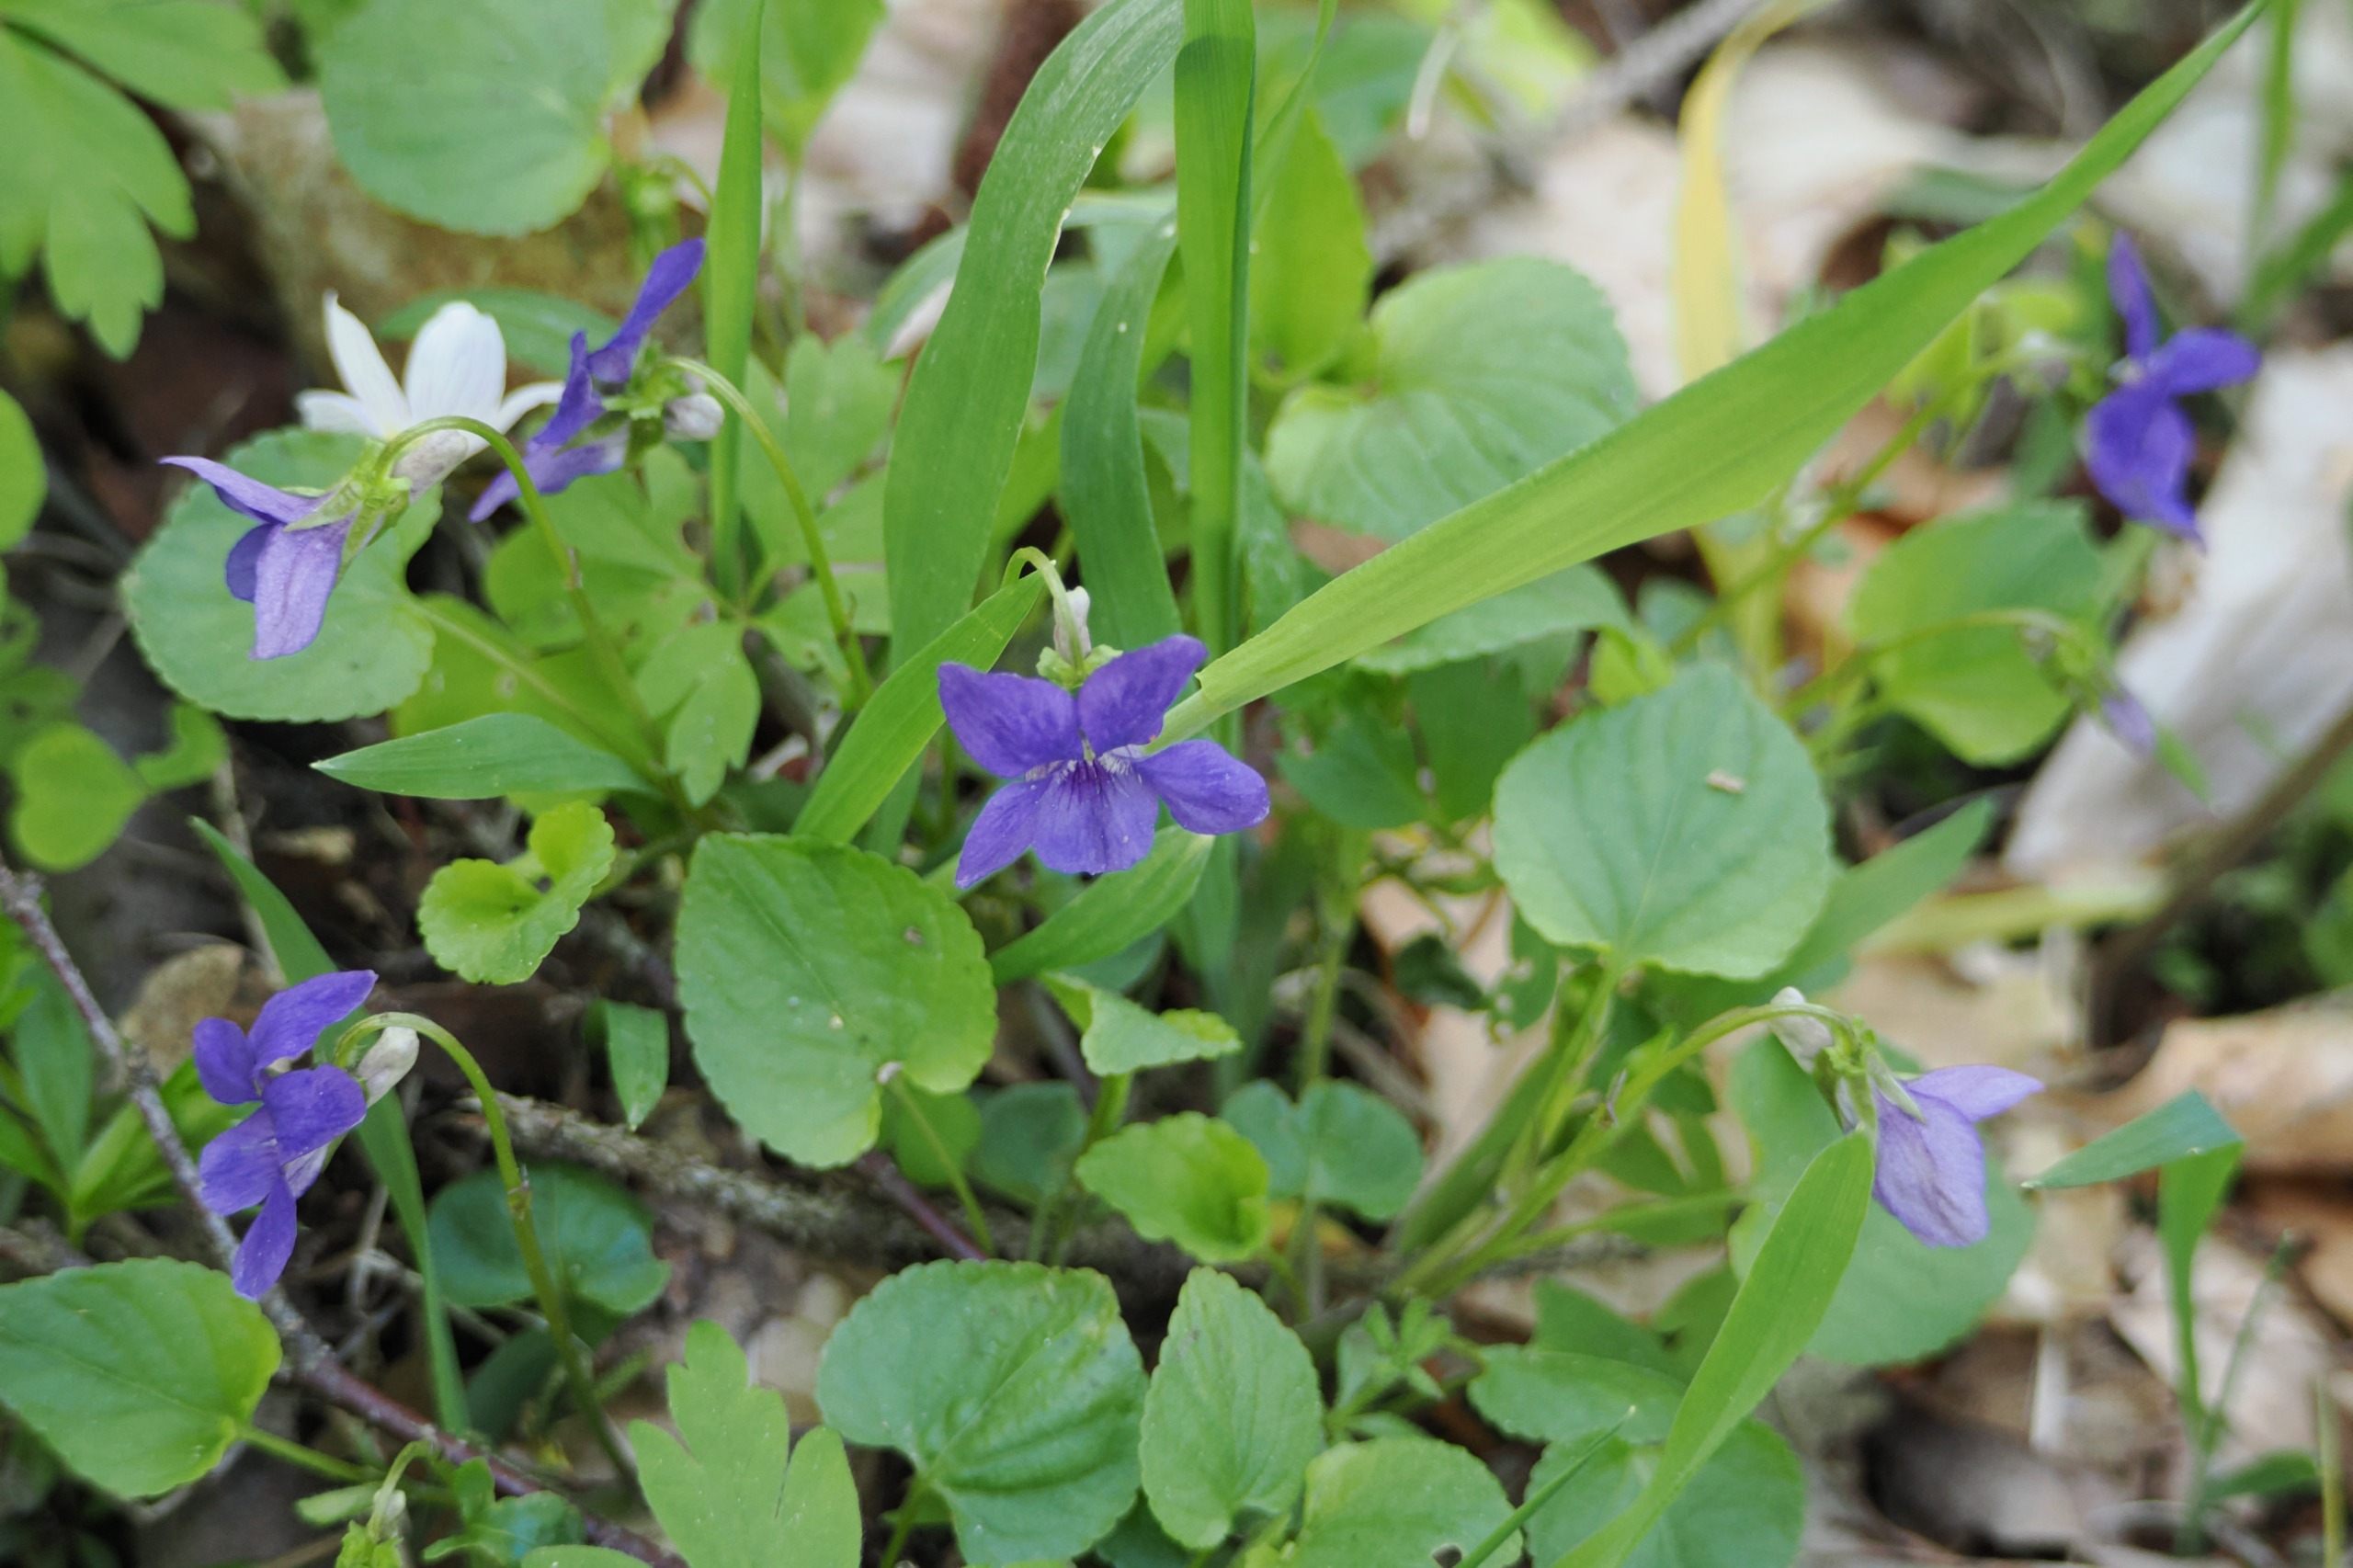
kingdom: Plantae
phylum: Tracheophyta
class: Magnoliopsida
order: Malpighiales
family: Violaceae
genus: Viola
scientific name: Viola riviniana
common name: Krat-viol
